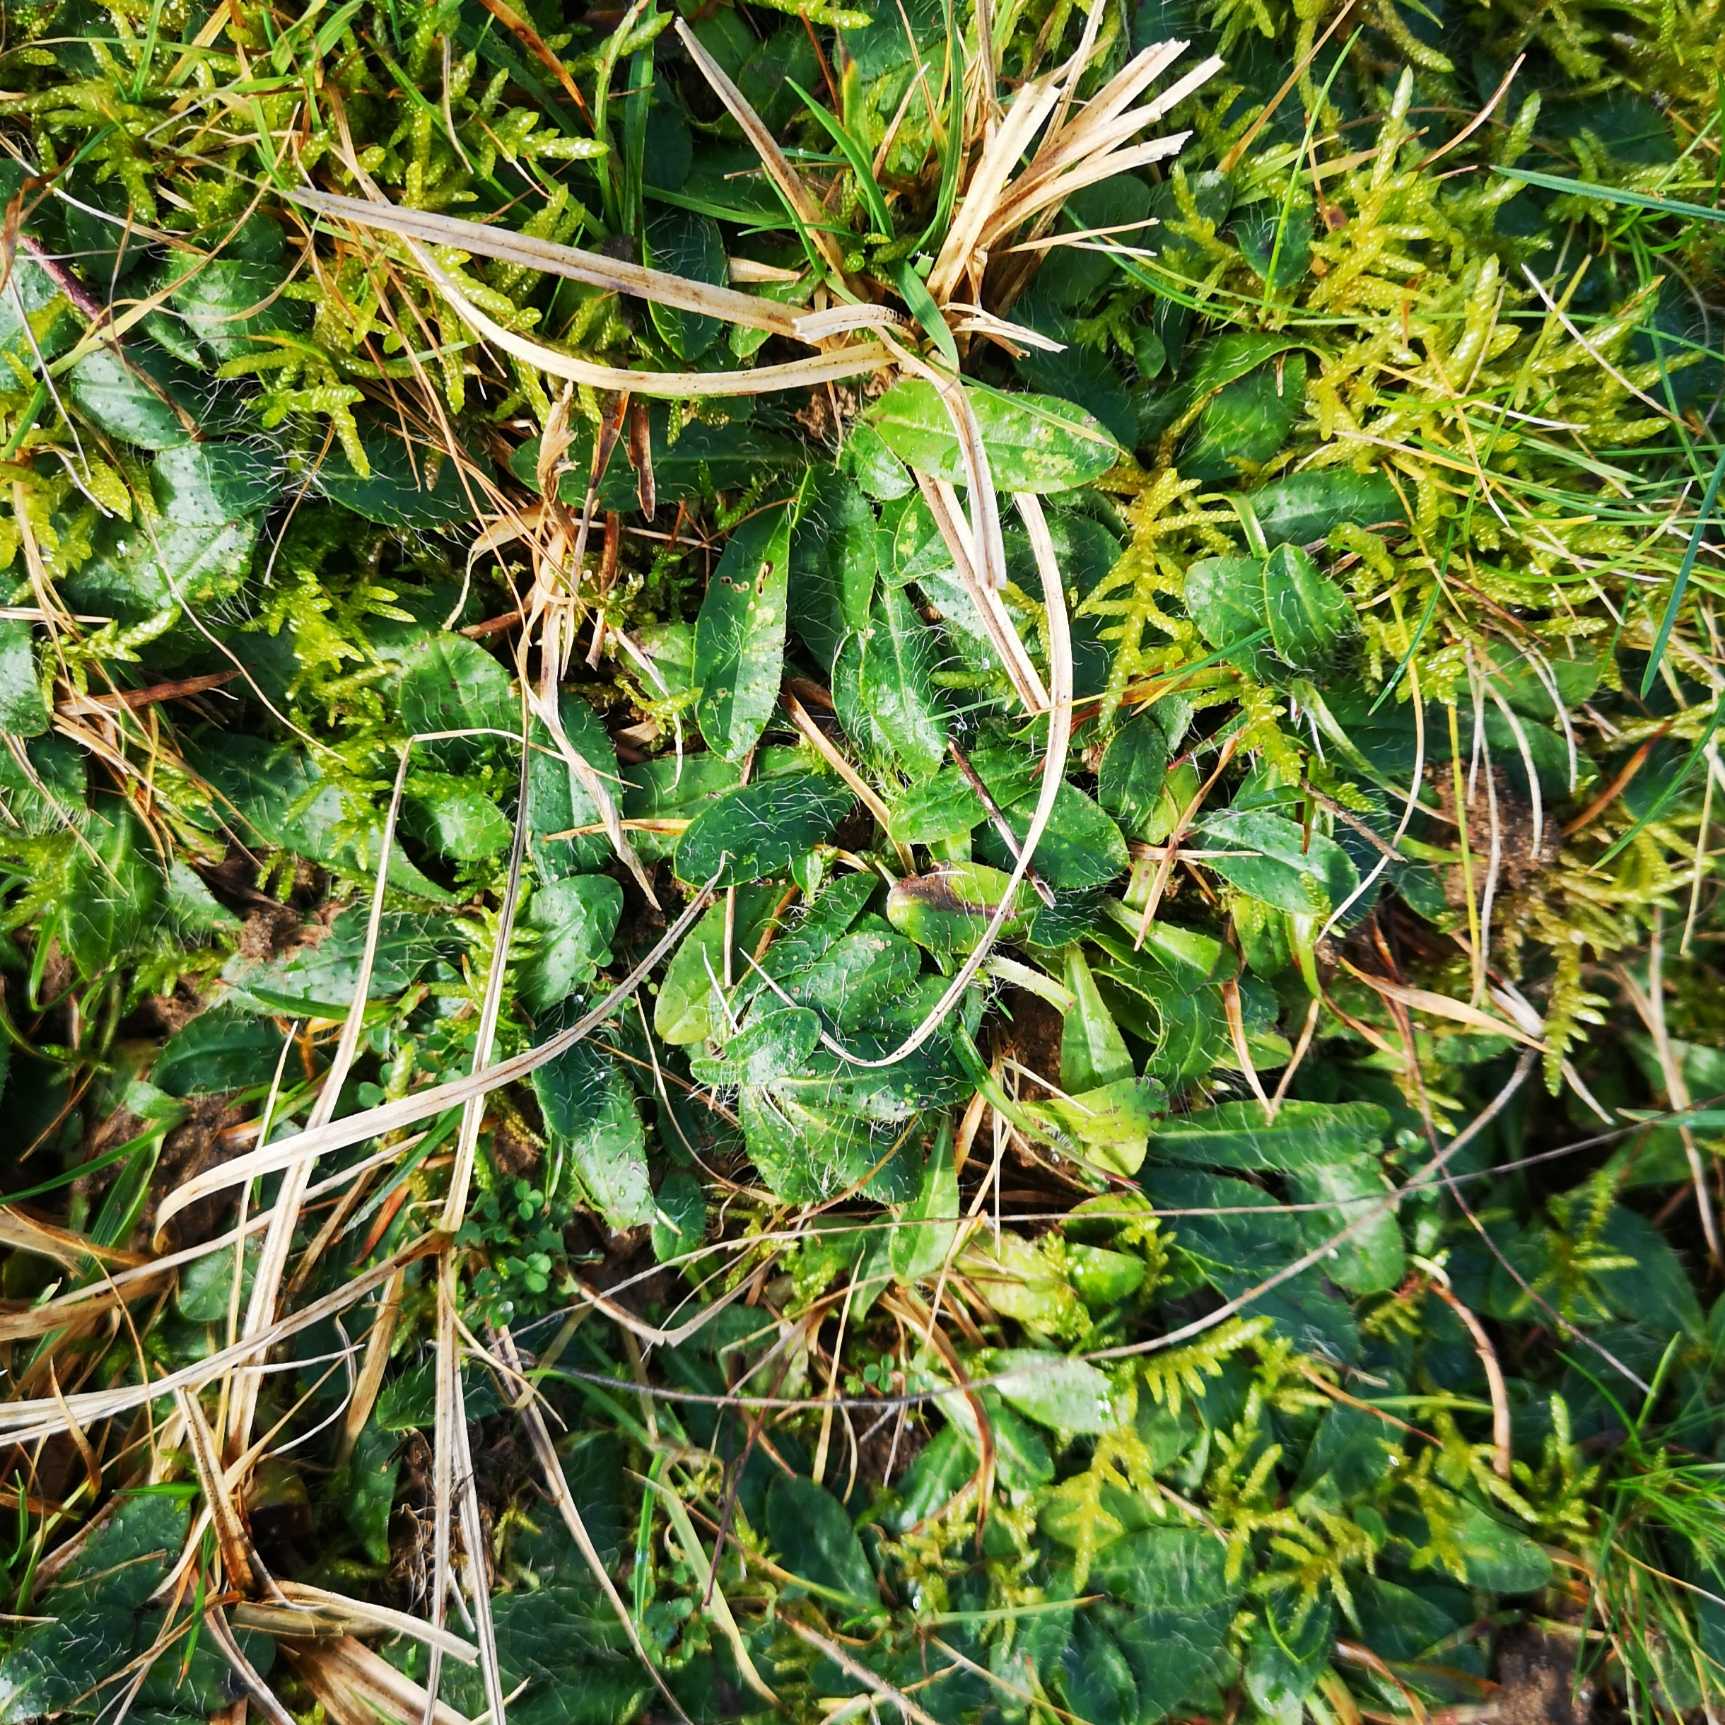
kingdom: Plantae
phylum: Tracheophyta
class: Magnoliopsida
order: Asterales
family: Asteraceae
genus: Pilosella
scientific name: Pilosella officinarum
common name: Håret høgeurt
